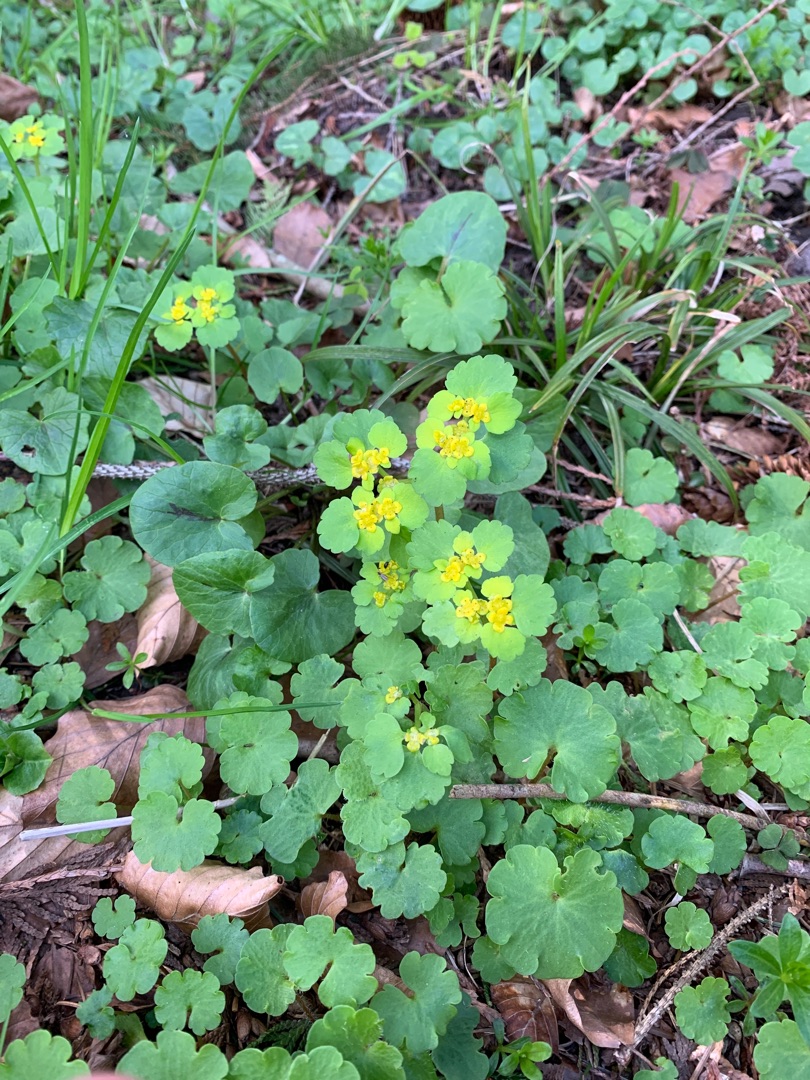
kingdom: Plantae
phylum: Tracheophyta
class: Magnoliopsida
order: Saxifragales
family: Saxifragaceae
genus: Chrysosplenium
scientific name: Chrysosplenium alternifolium
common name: Almindelig milturt
